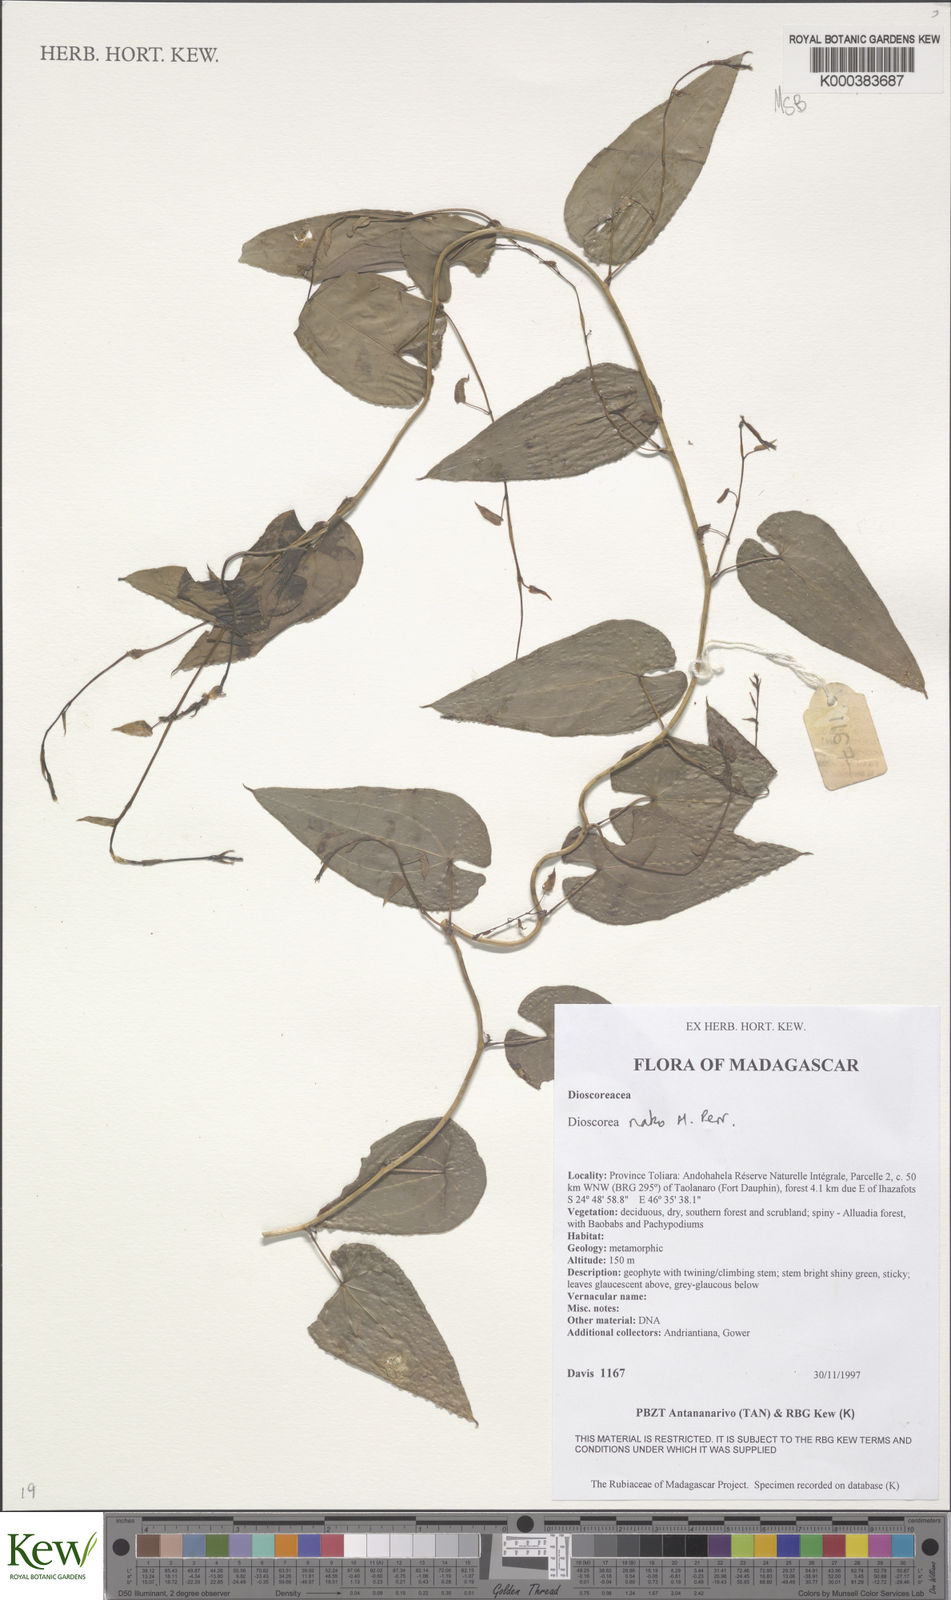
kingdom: Plantae
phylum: Tracheophyta
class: Liliopsida
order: Dioscoreales
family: Dioscoreaceae
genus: Dioscorea
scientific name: Dioscorea
